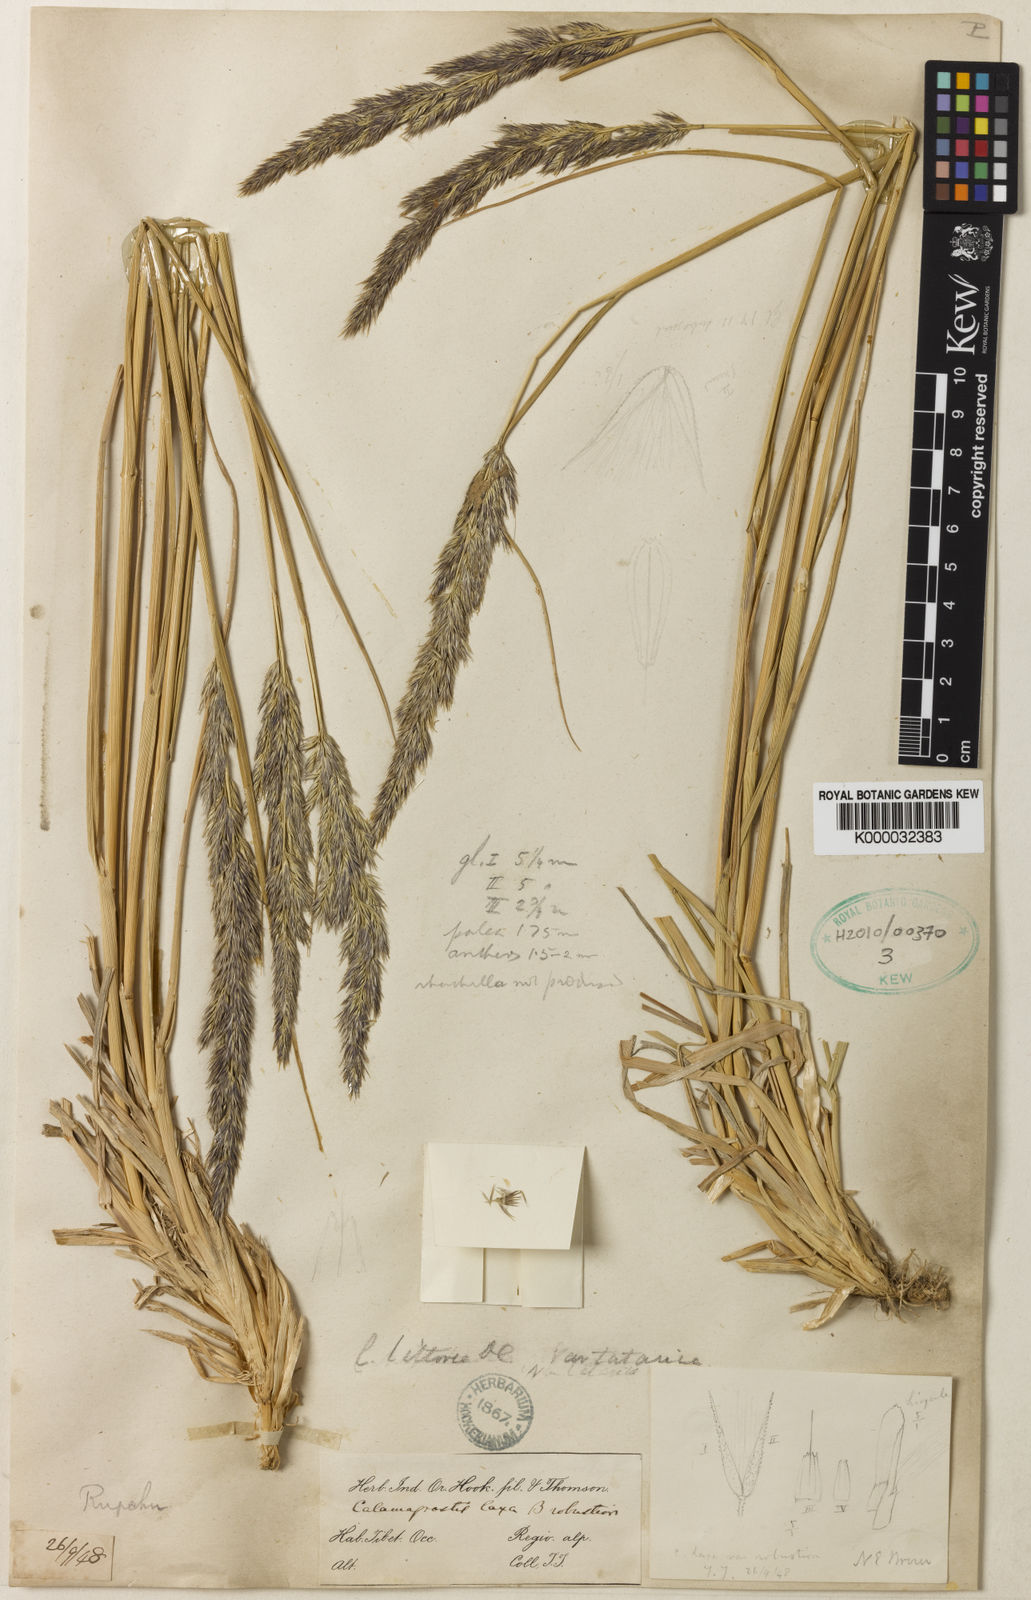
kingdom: Plantae
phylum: Tracheophyta
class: Liliopsida
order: Poales
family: Poaceae
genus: Calamagrostis
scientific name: Calamagrostis pseudophragmites
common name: Coastal small-reed
